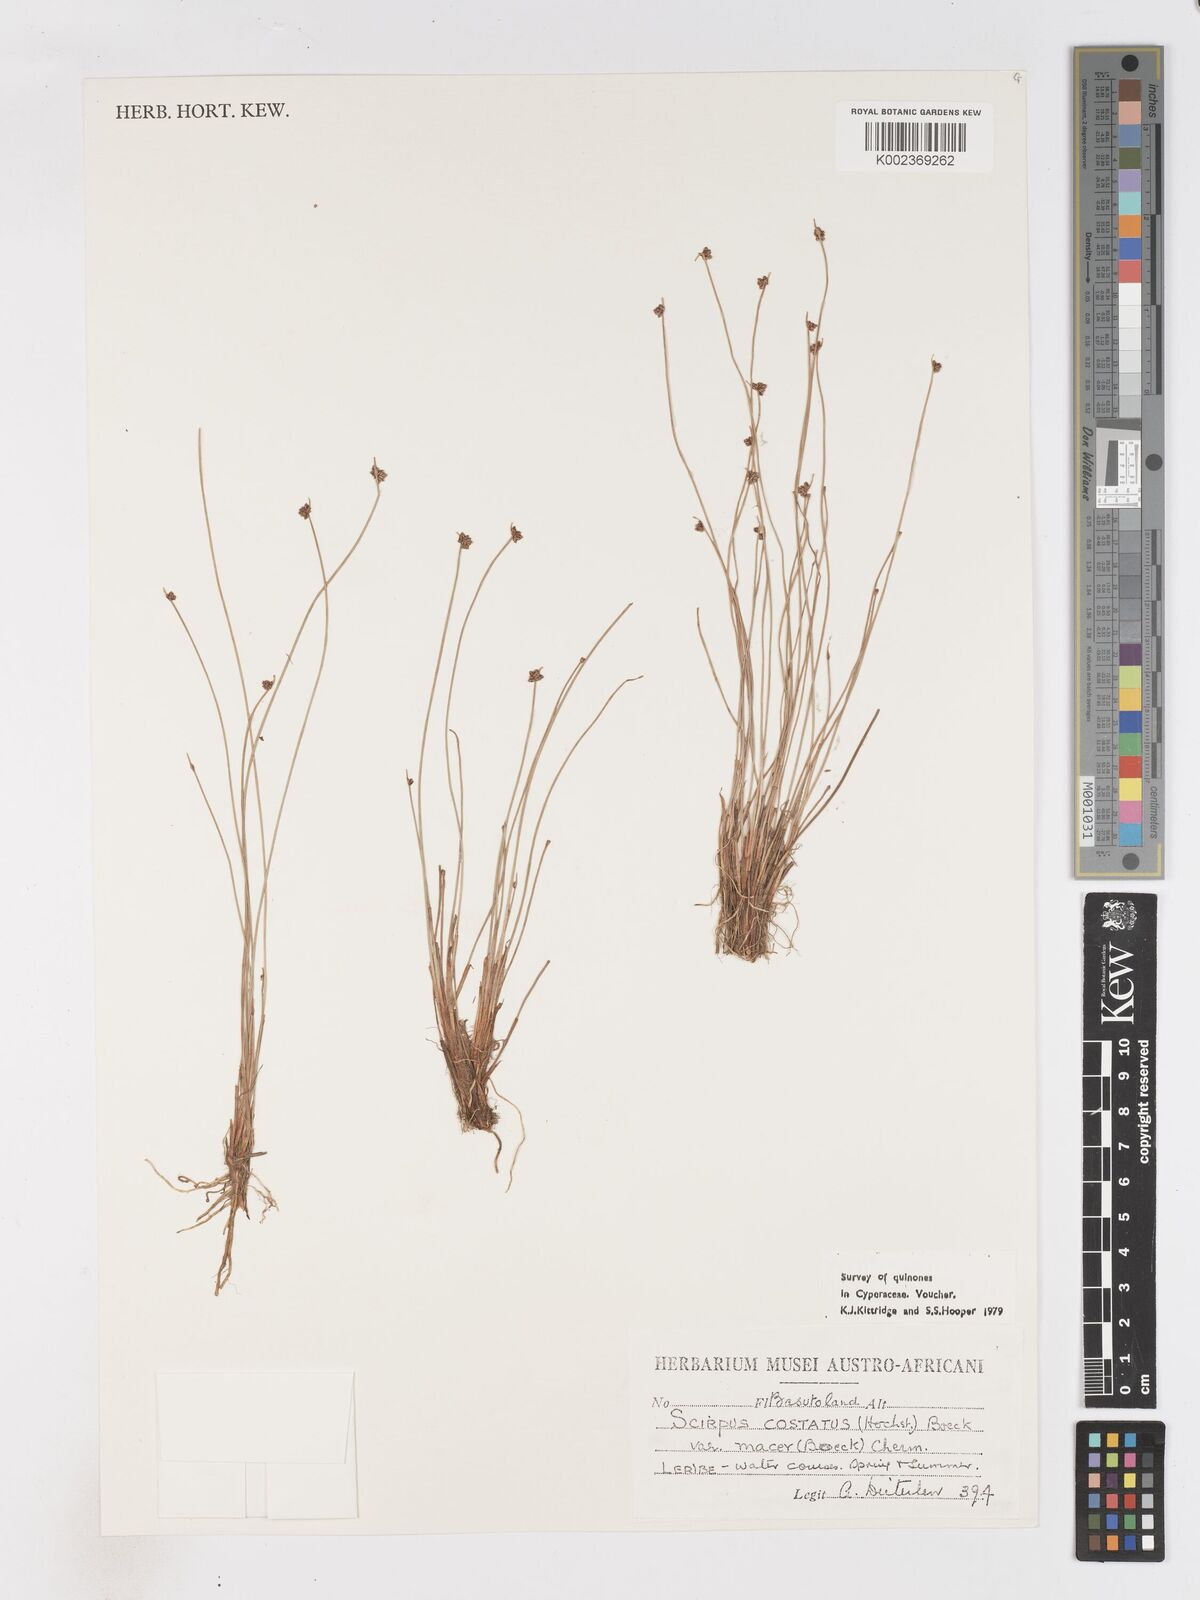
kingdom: Plantae
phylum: Tracheophyta
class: Liliopsida
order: Poales
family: Cyperaceae
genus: Isolepis
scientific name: Isolepis costata
